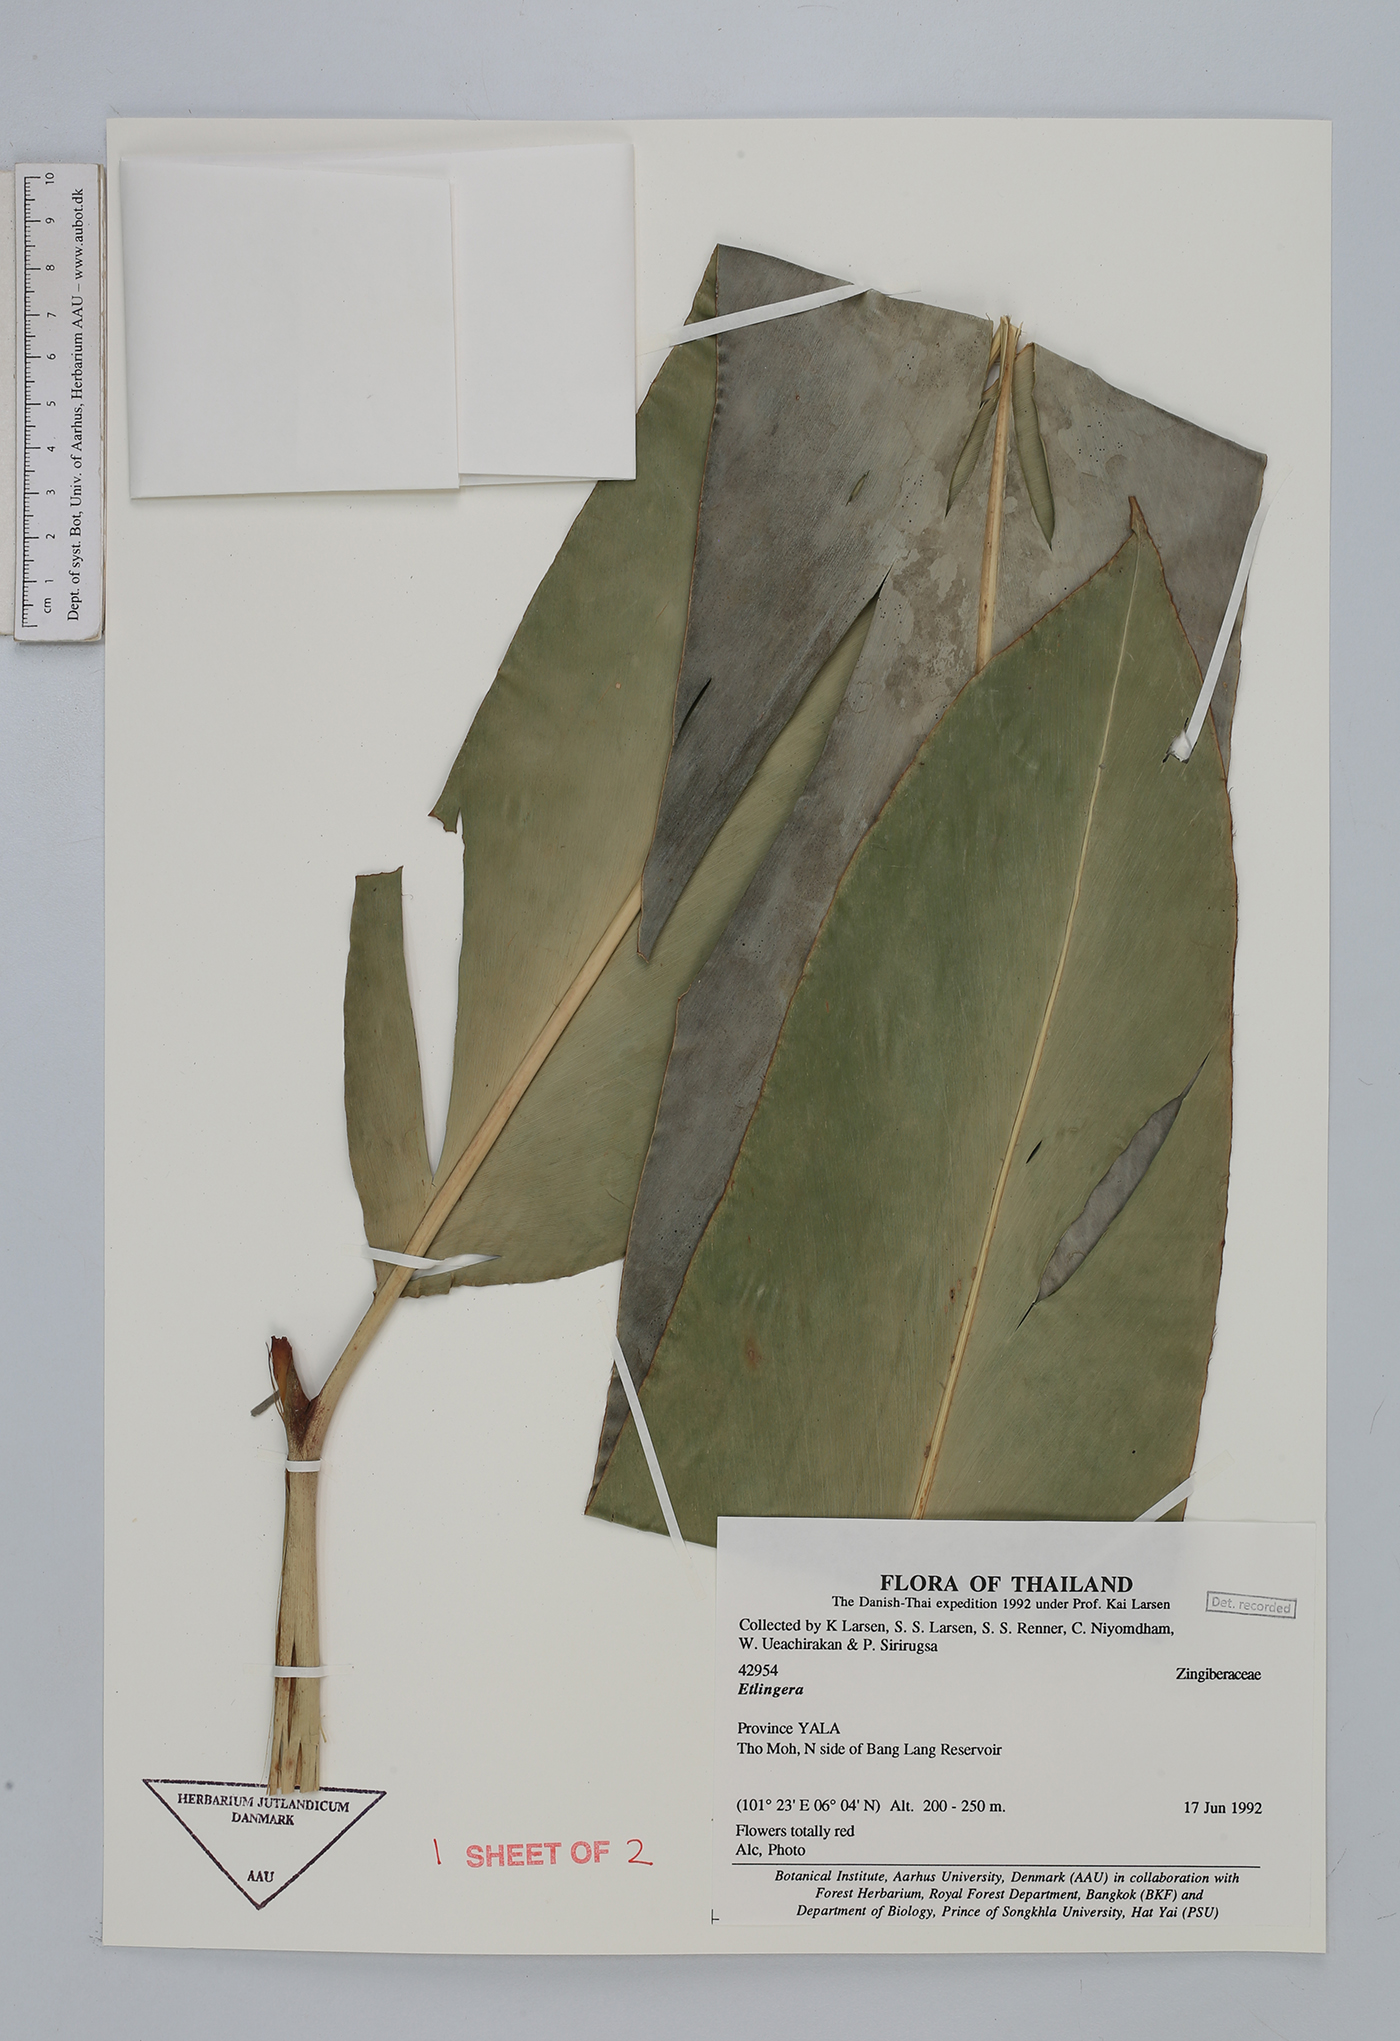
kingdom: Plantae
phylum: Tracheophyta
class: Liliopsida
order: Zingiberales
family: Zingiberaceae
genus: Etlingera
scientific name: Etlingera
